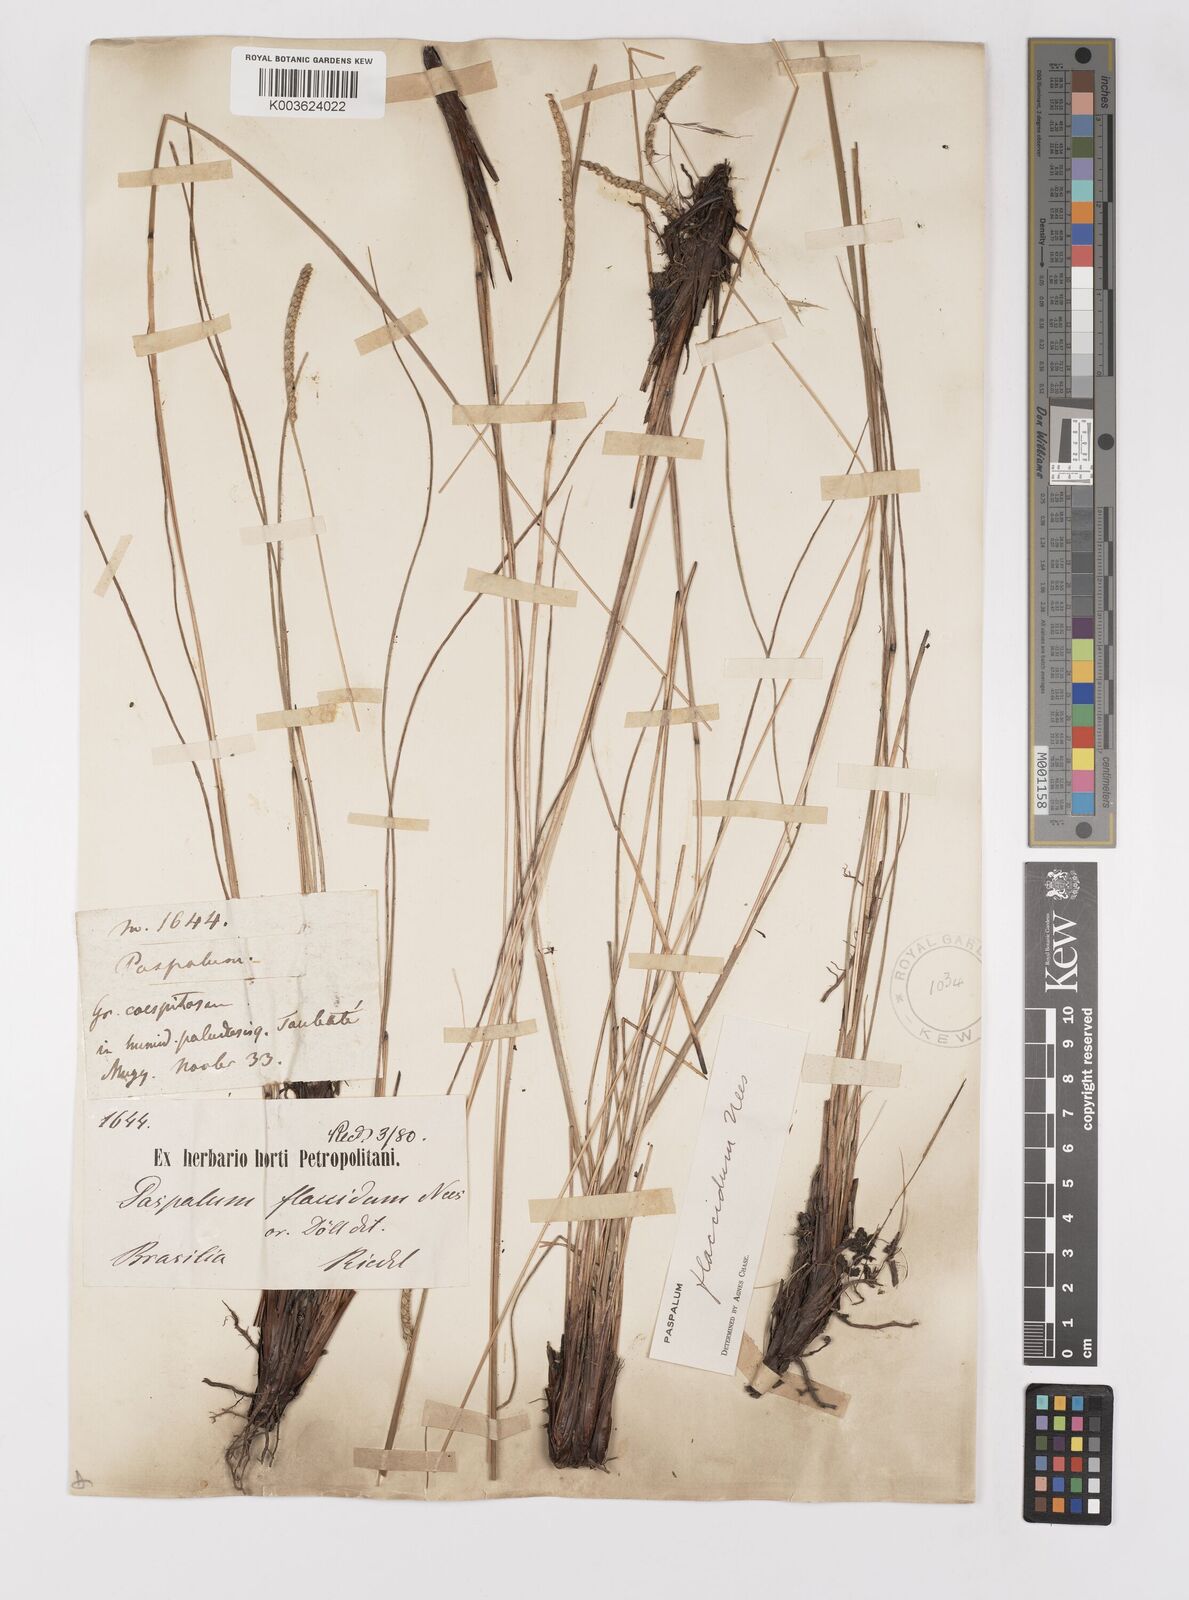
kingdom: Plantae
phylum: Tracheophyta
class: Liliopsida
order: Poales
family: Poaceae
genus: Paspalum
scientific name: Paspalum flaccidum
